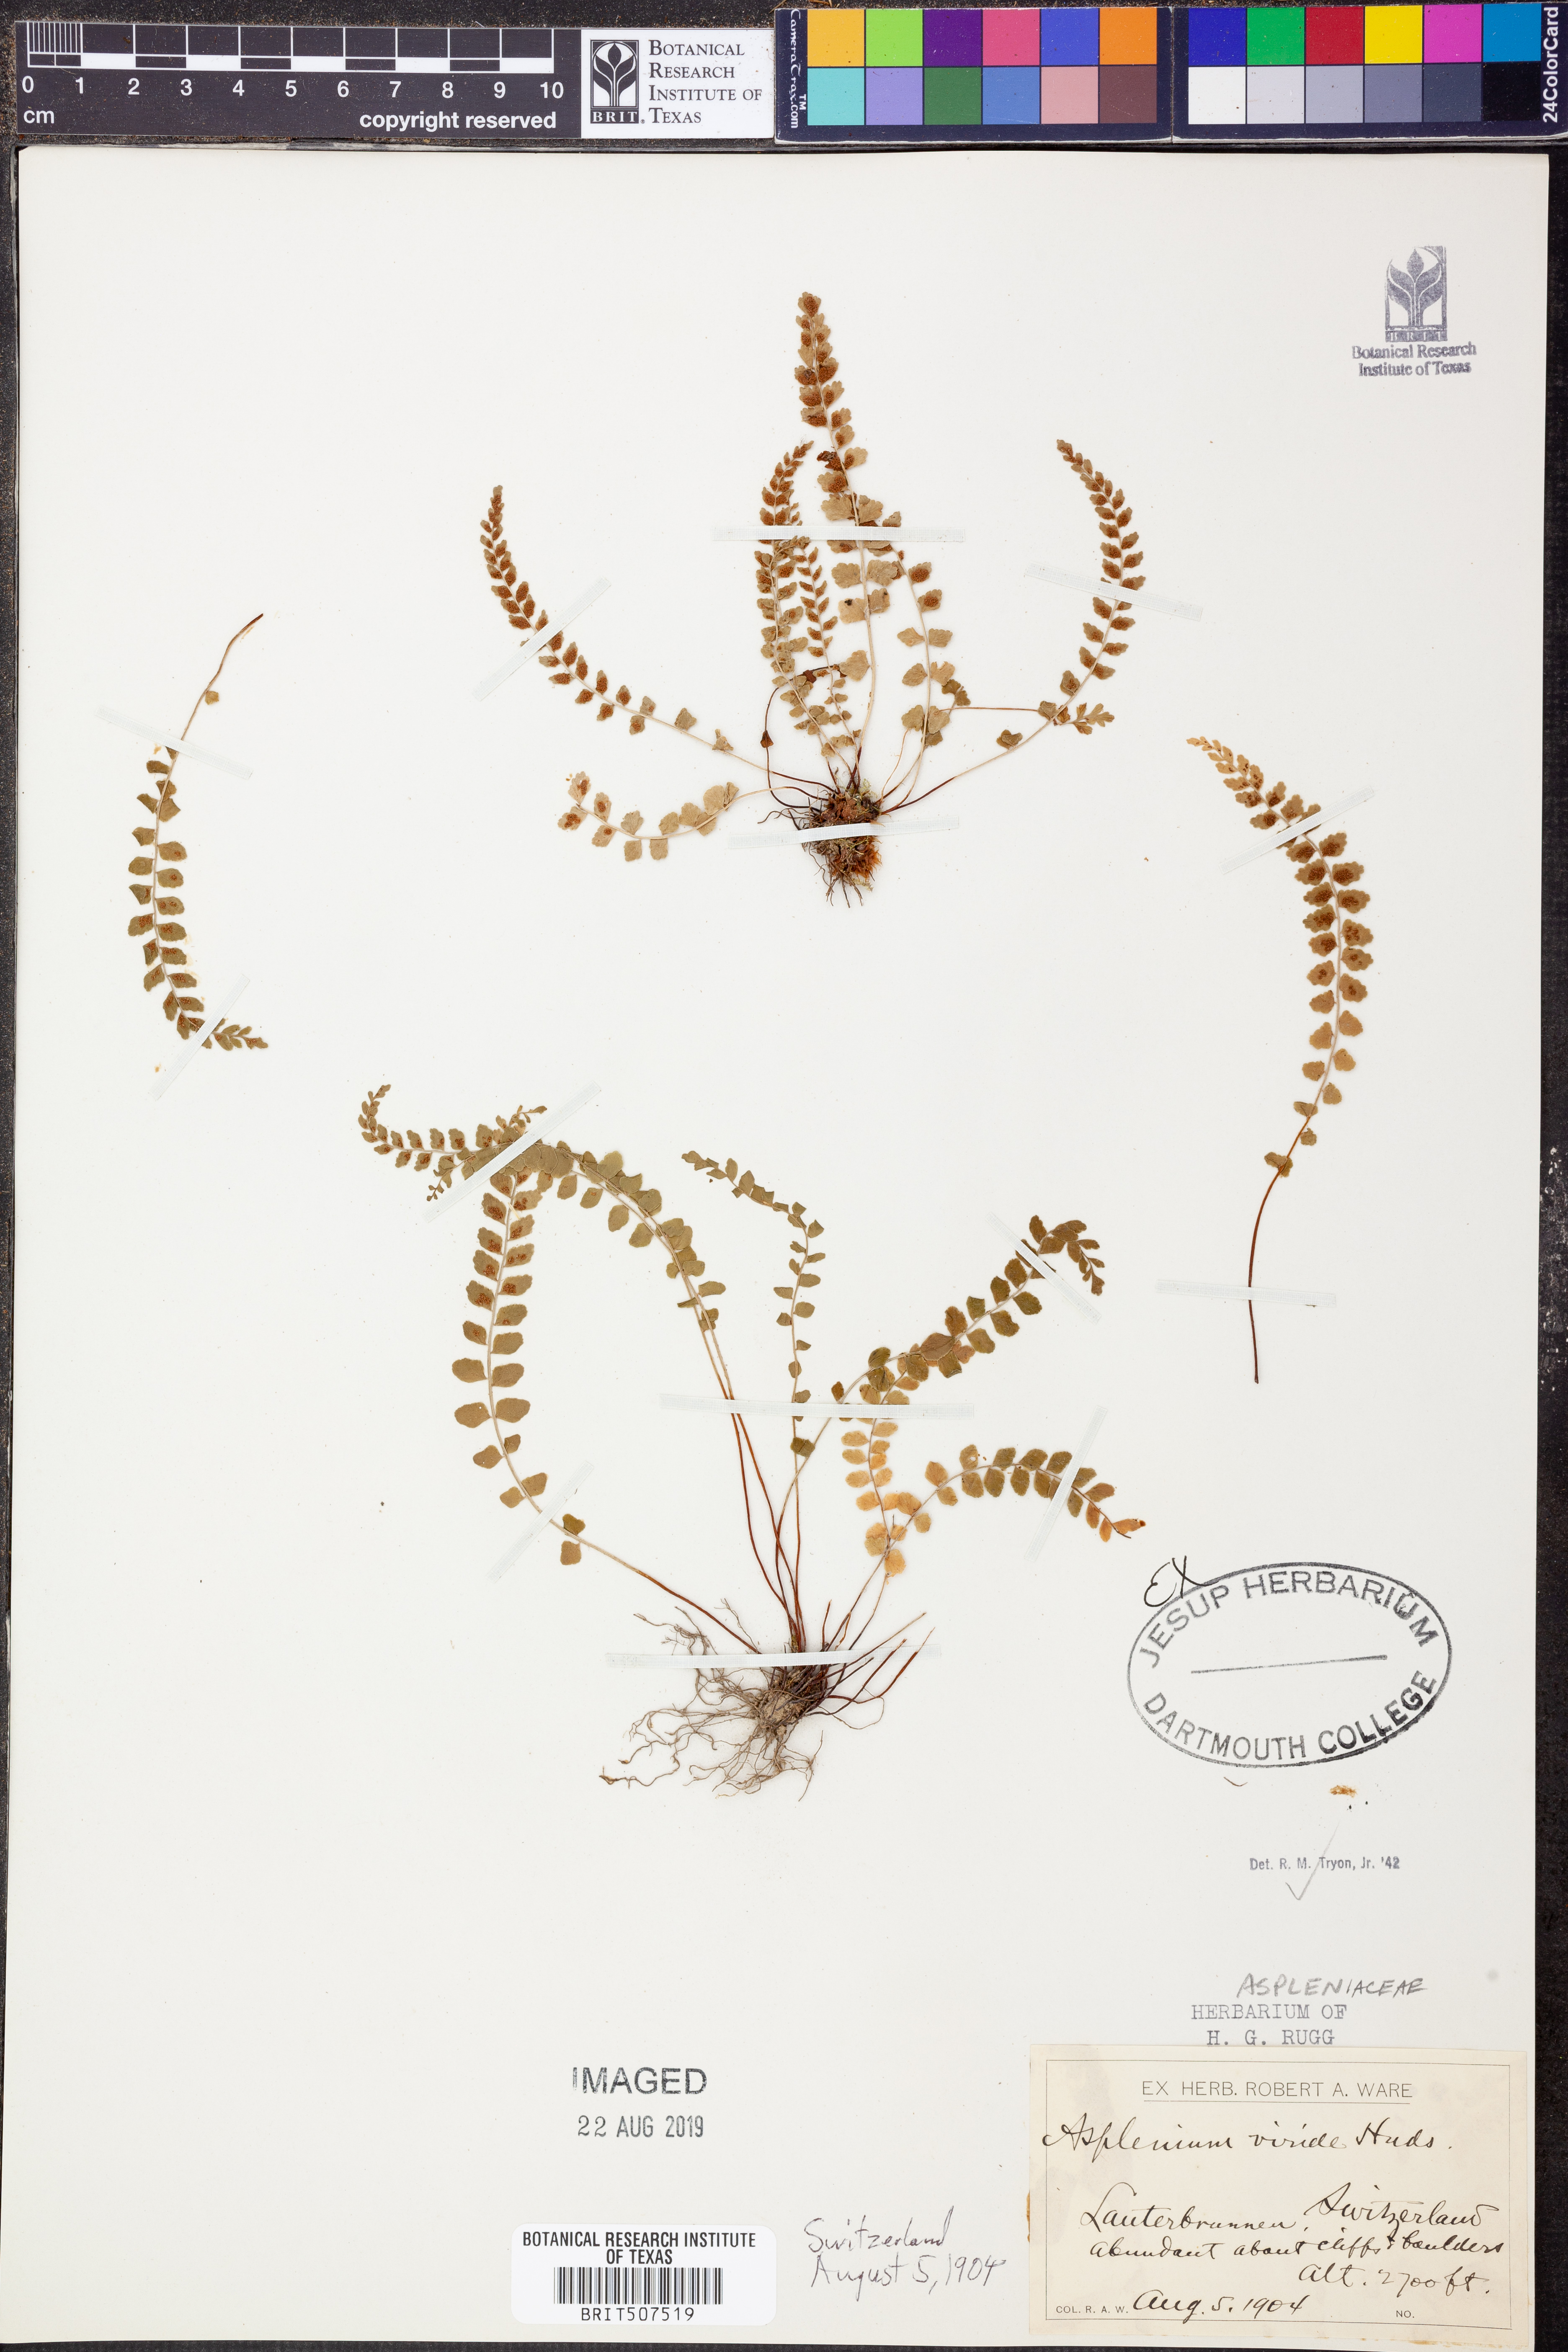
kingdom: Plantae
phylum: Tracheophyta
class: Polypodiopsida
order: Polypodiales
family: Aspleniaceae
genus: Asplenium
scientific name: Asplenium viride
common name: Green spleenwort
